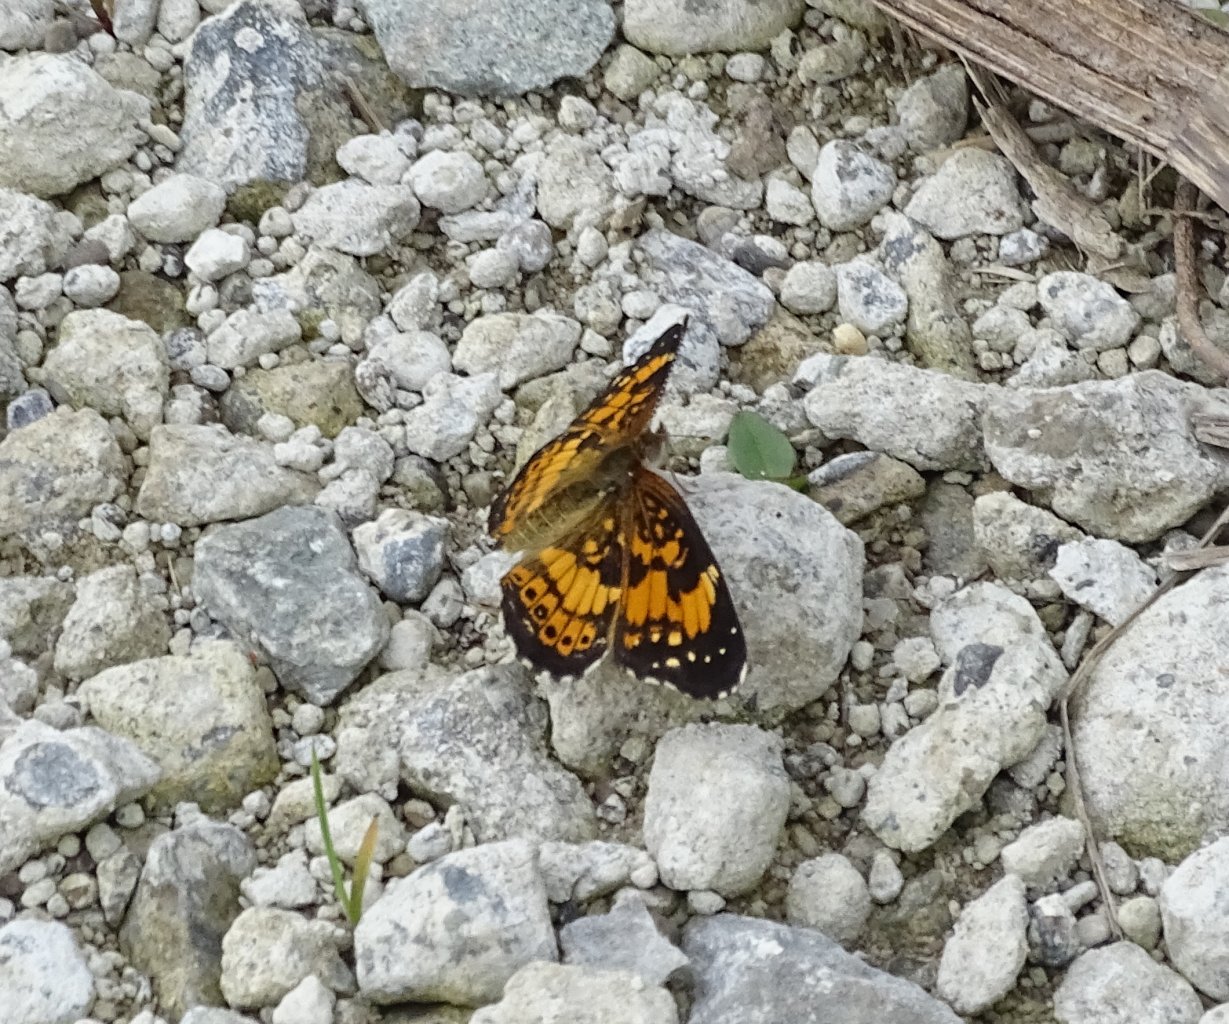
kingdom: Animalia
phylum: Arthropoda
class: Insecta
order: Lepidoptera
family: Nymphalidae
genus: Chlosyne
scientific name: Chlosyne nycteis
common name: Silvery Checkerspot
